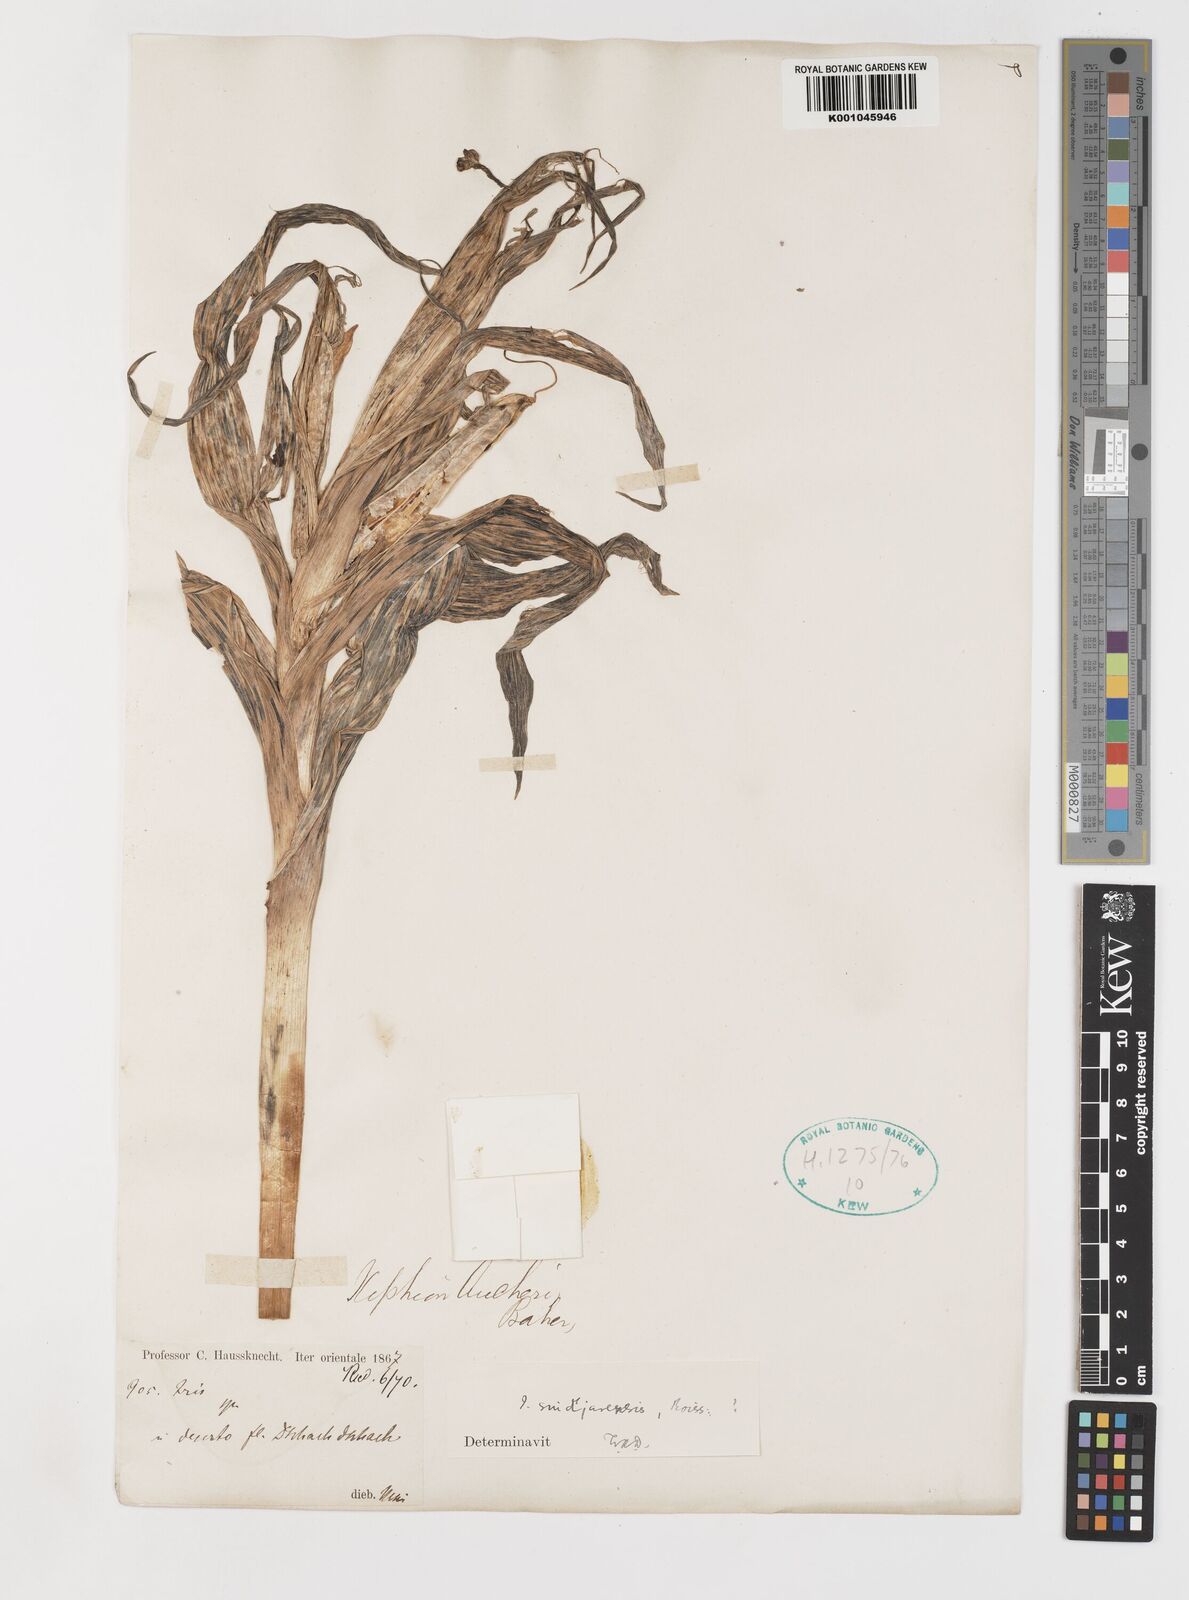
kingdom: Plantae
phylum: Tracheophyta
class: Liliopsida
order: Asparagales
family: Iridaceae
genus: Iris
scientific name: Iris aucheri
